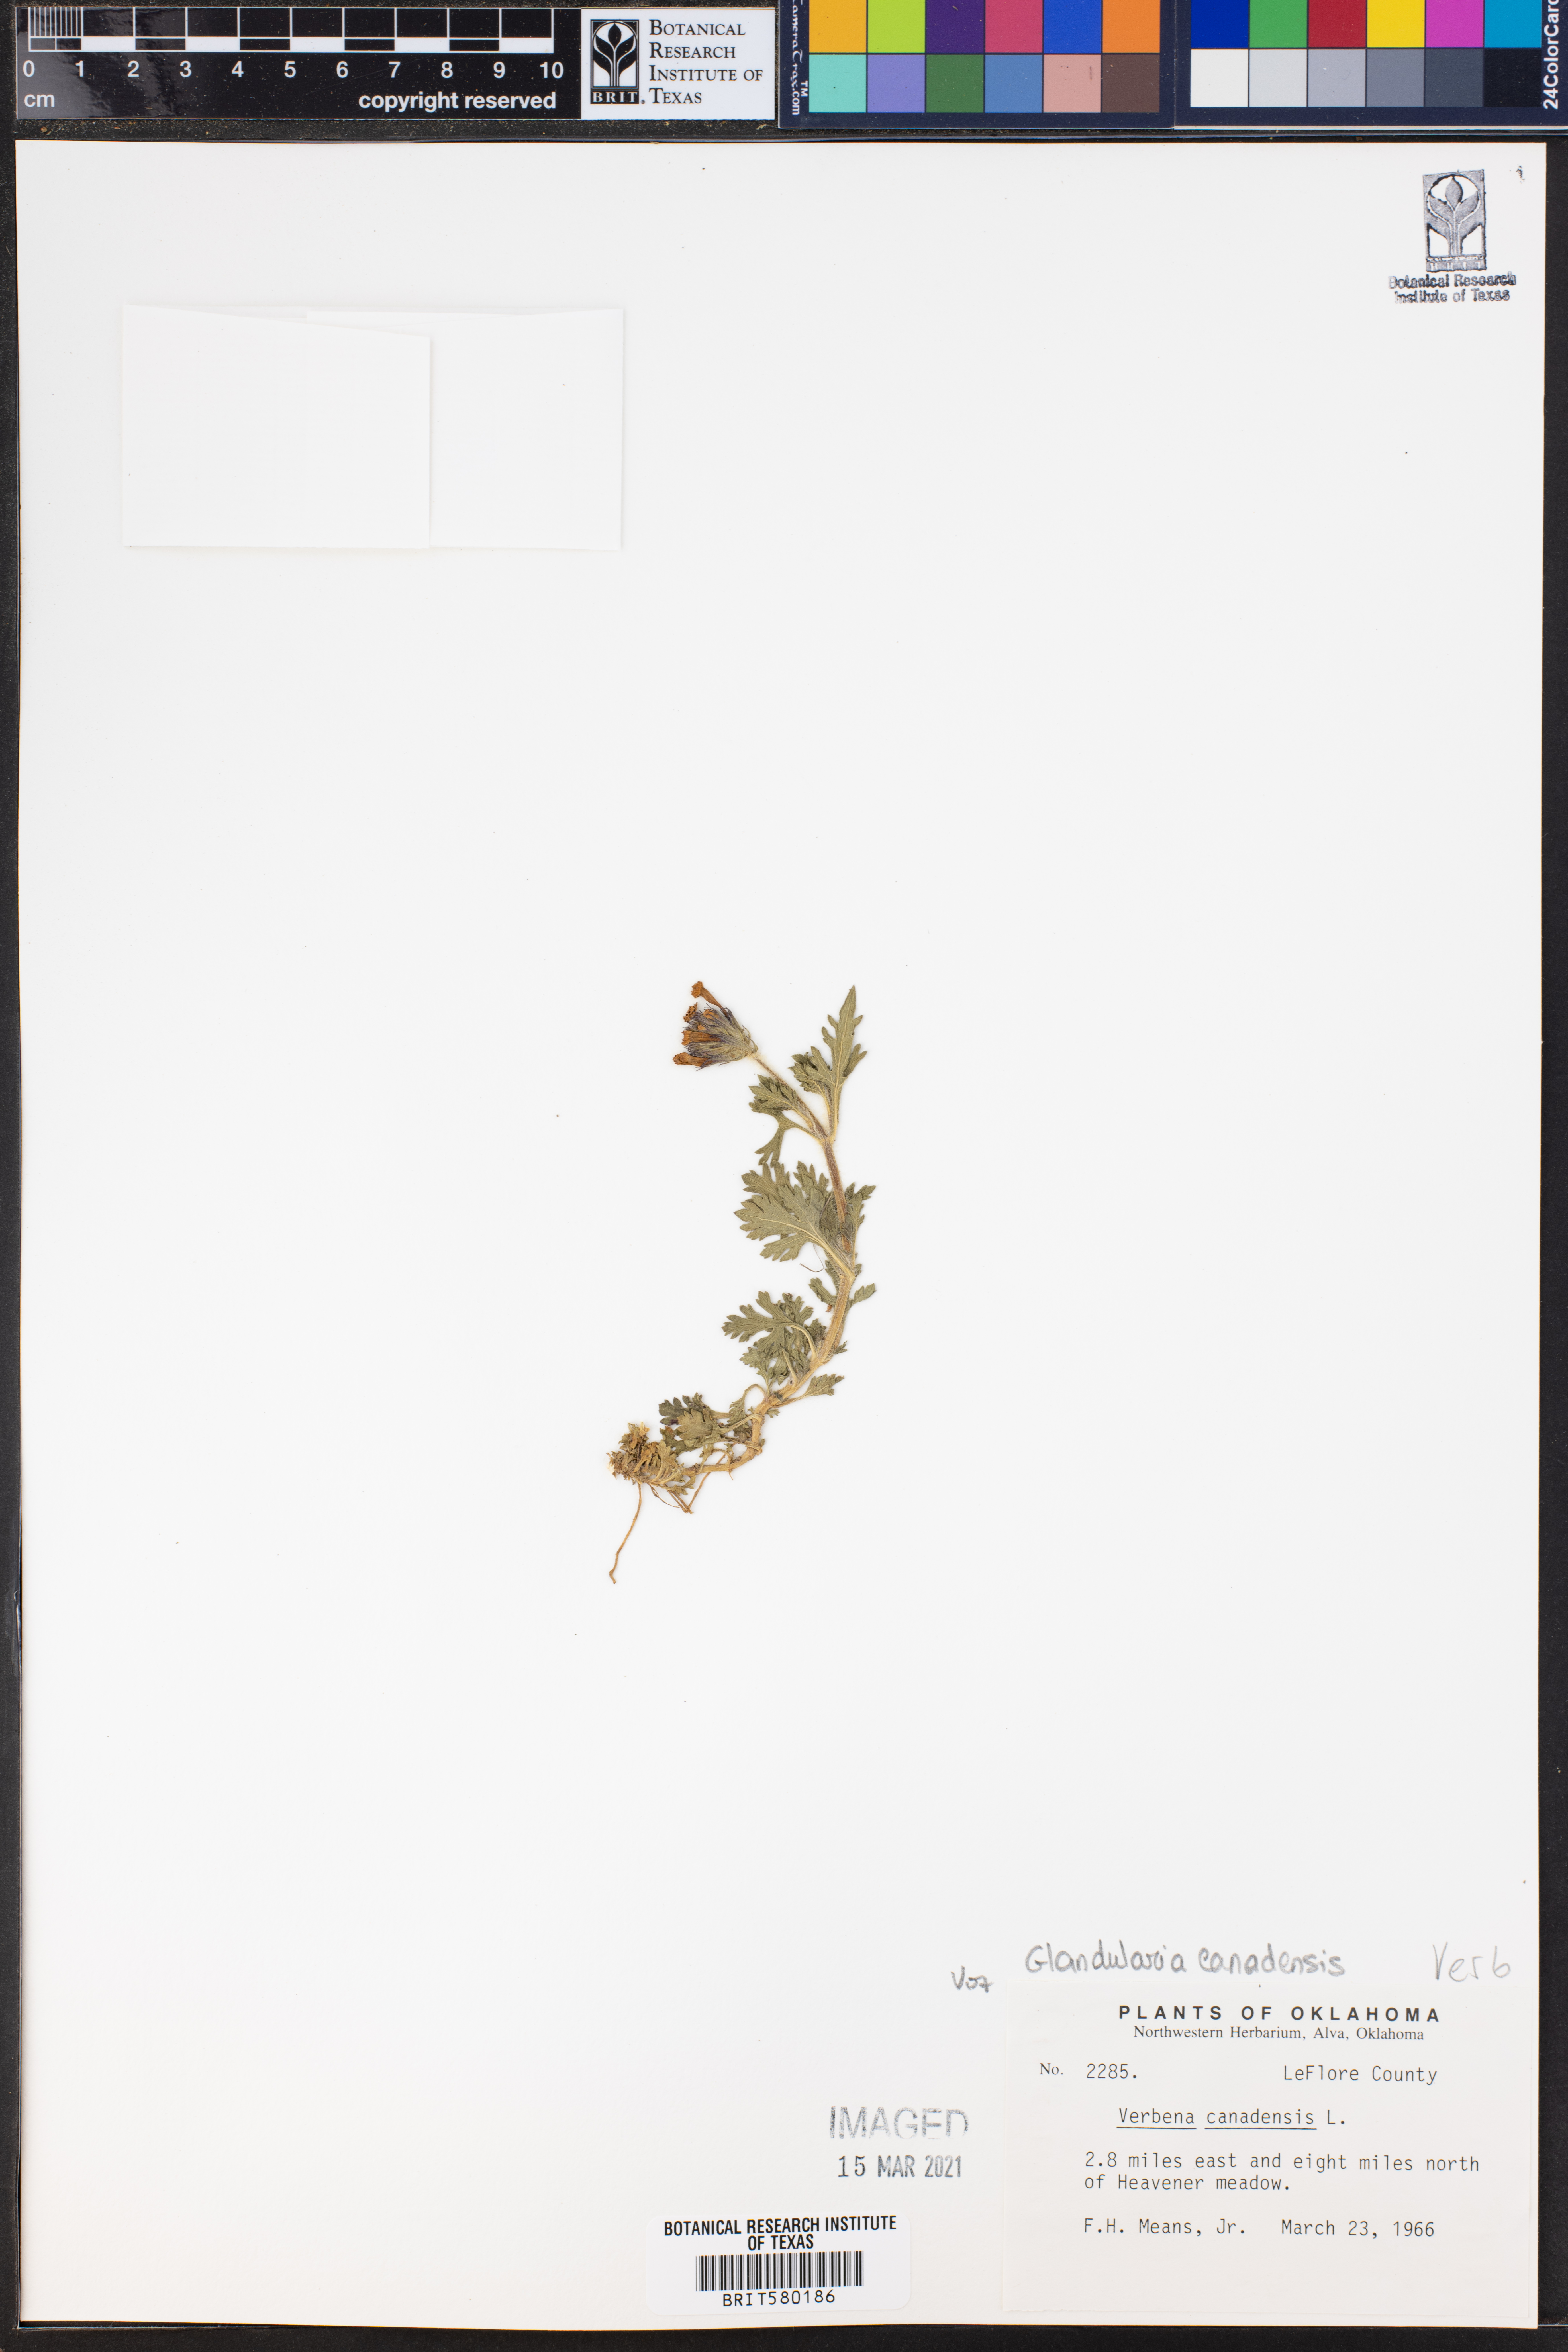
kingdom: Plantae
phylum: Tracheophyta
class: Magnoliopsida
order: Lamiales
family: Verbenaceae
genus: Verbena
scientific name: Verbena canadensis
